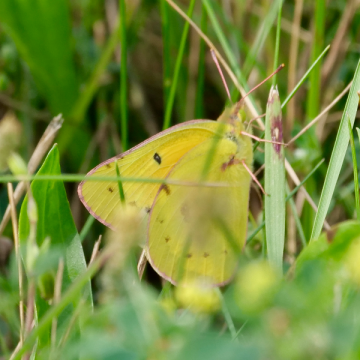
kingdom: Animalia
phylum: Arthropoda
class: Insecta
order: Lepidoptera
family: Pieridae
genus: Colias
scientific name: Colias eurytheme
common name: Orange Sulphur
